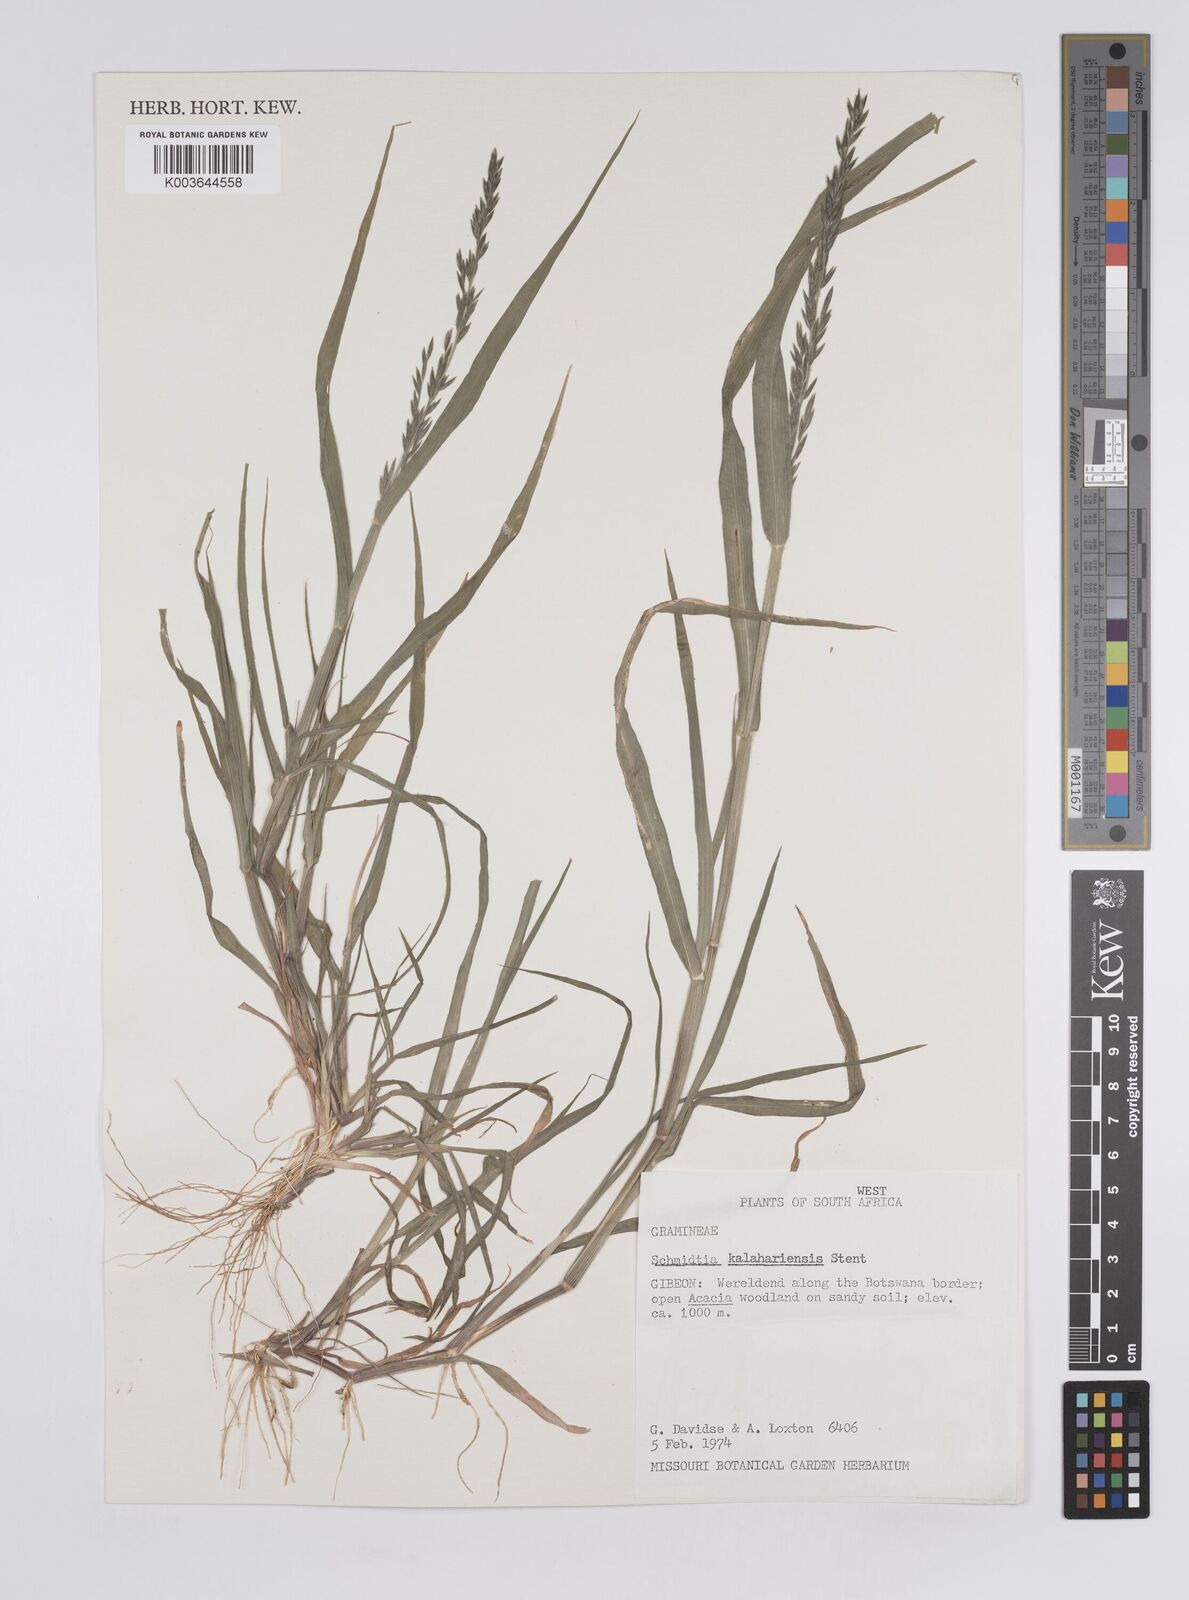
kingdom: Plantae
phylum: Tracheophyta
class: Liliopsida
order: Poales
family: Poaceae
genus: Schmidtia
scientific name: Schmidtia kalahariensis
